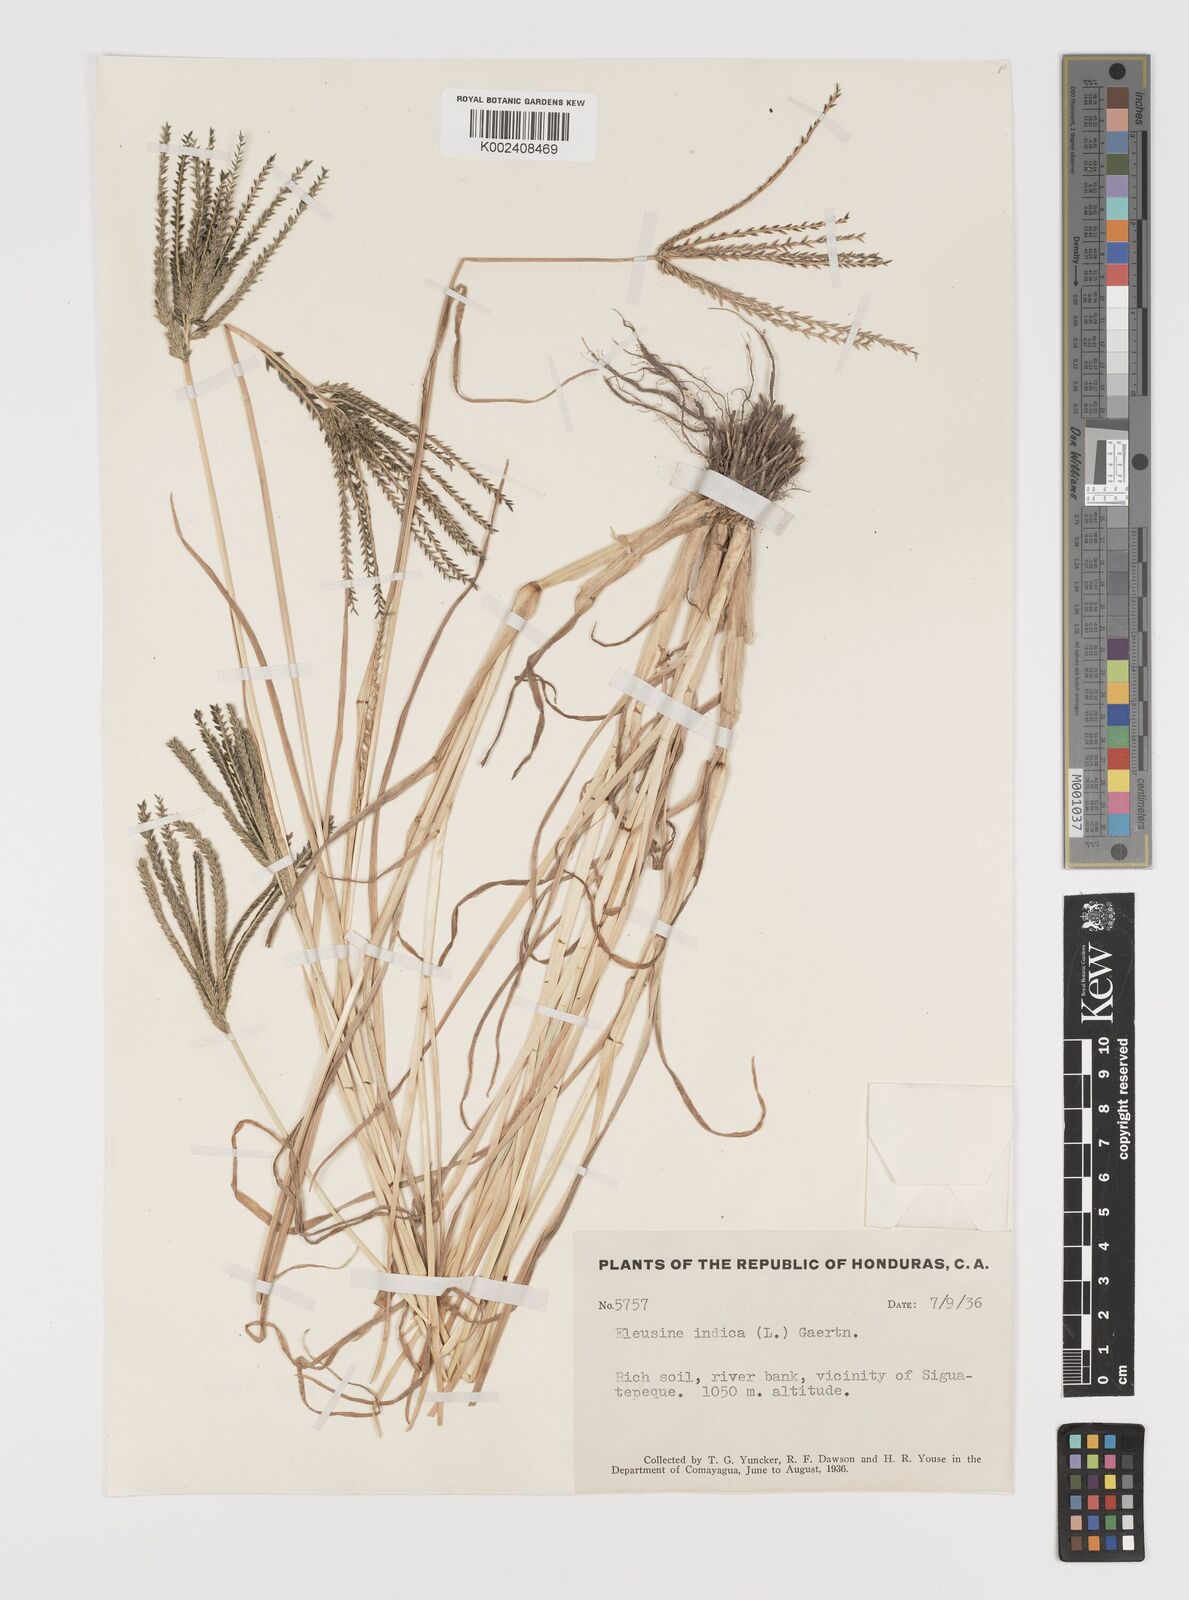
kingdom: Plantae
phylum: Tracheophyta
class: Liliopsida
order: Poales
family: Poaceae
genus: Eleusine
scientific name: Eleusine indica
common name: Yard-grass
